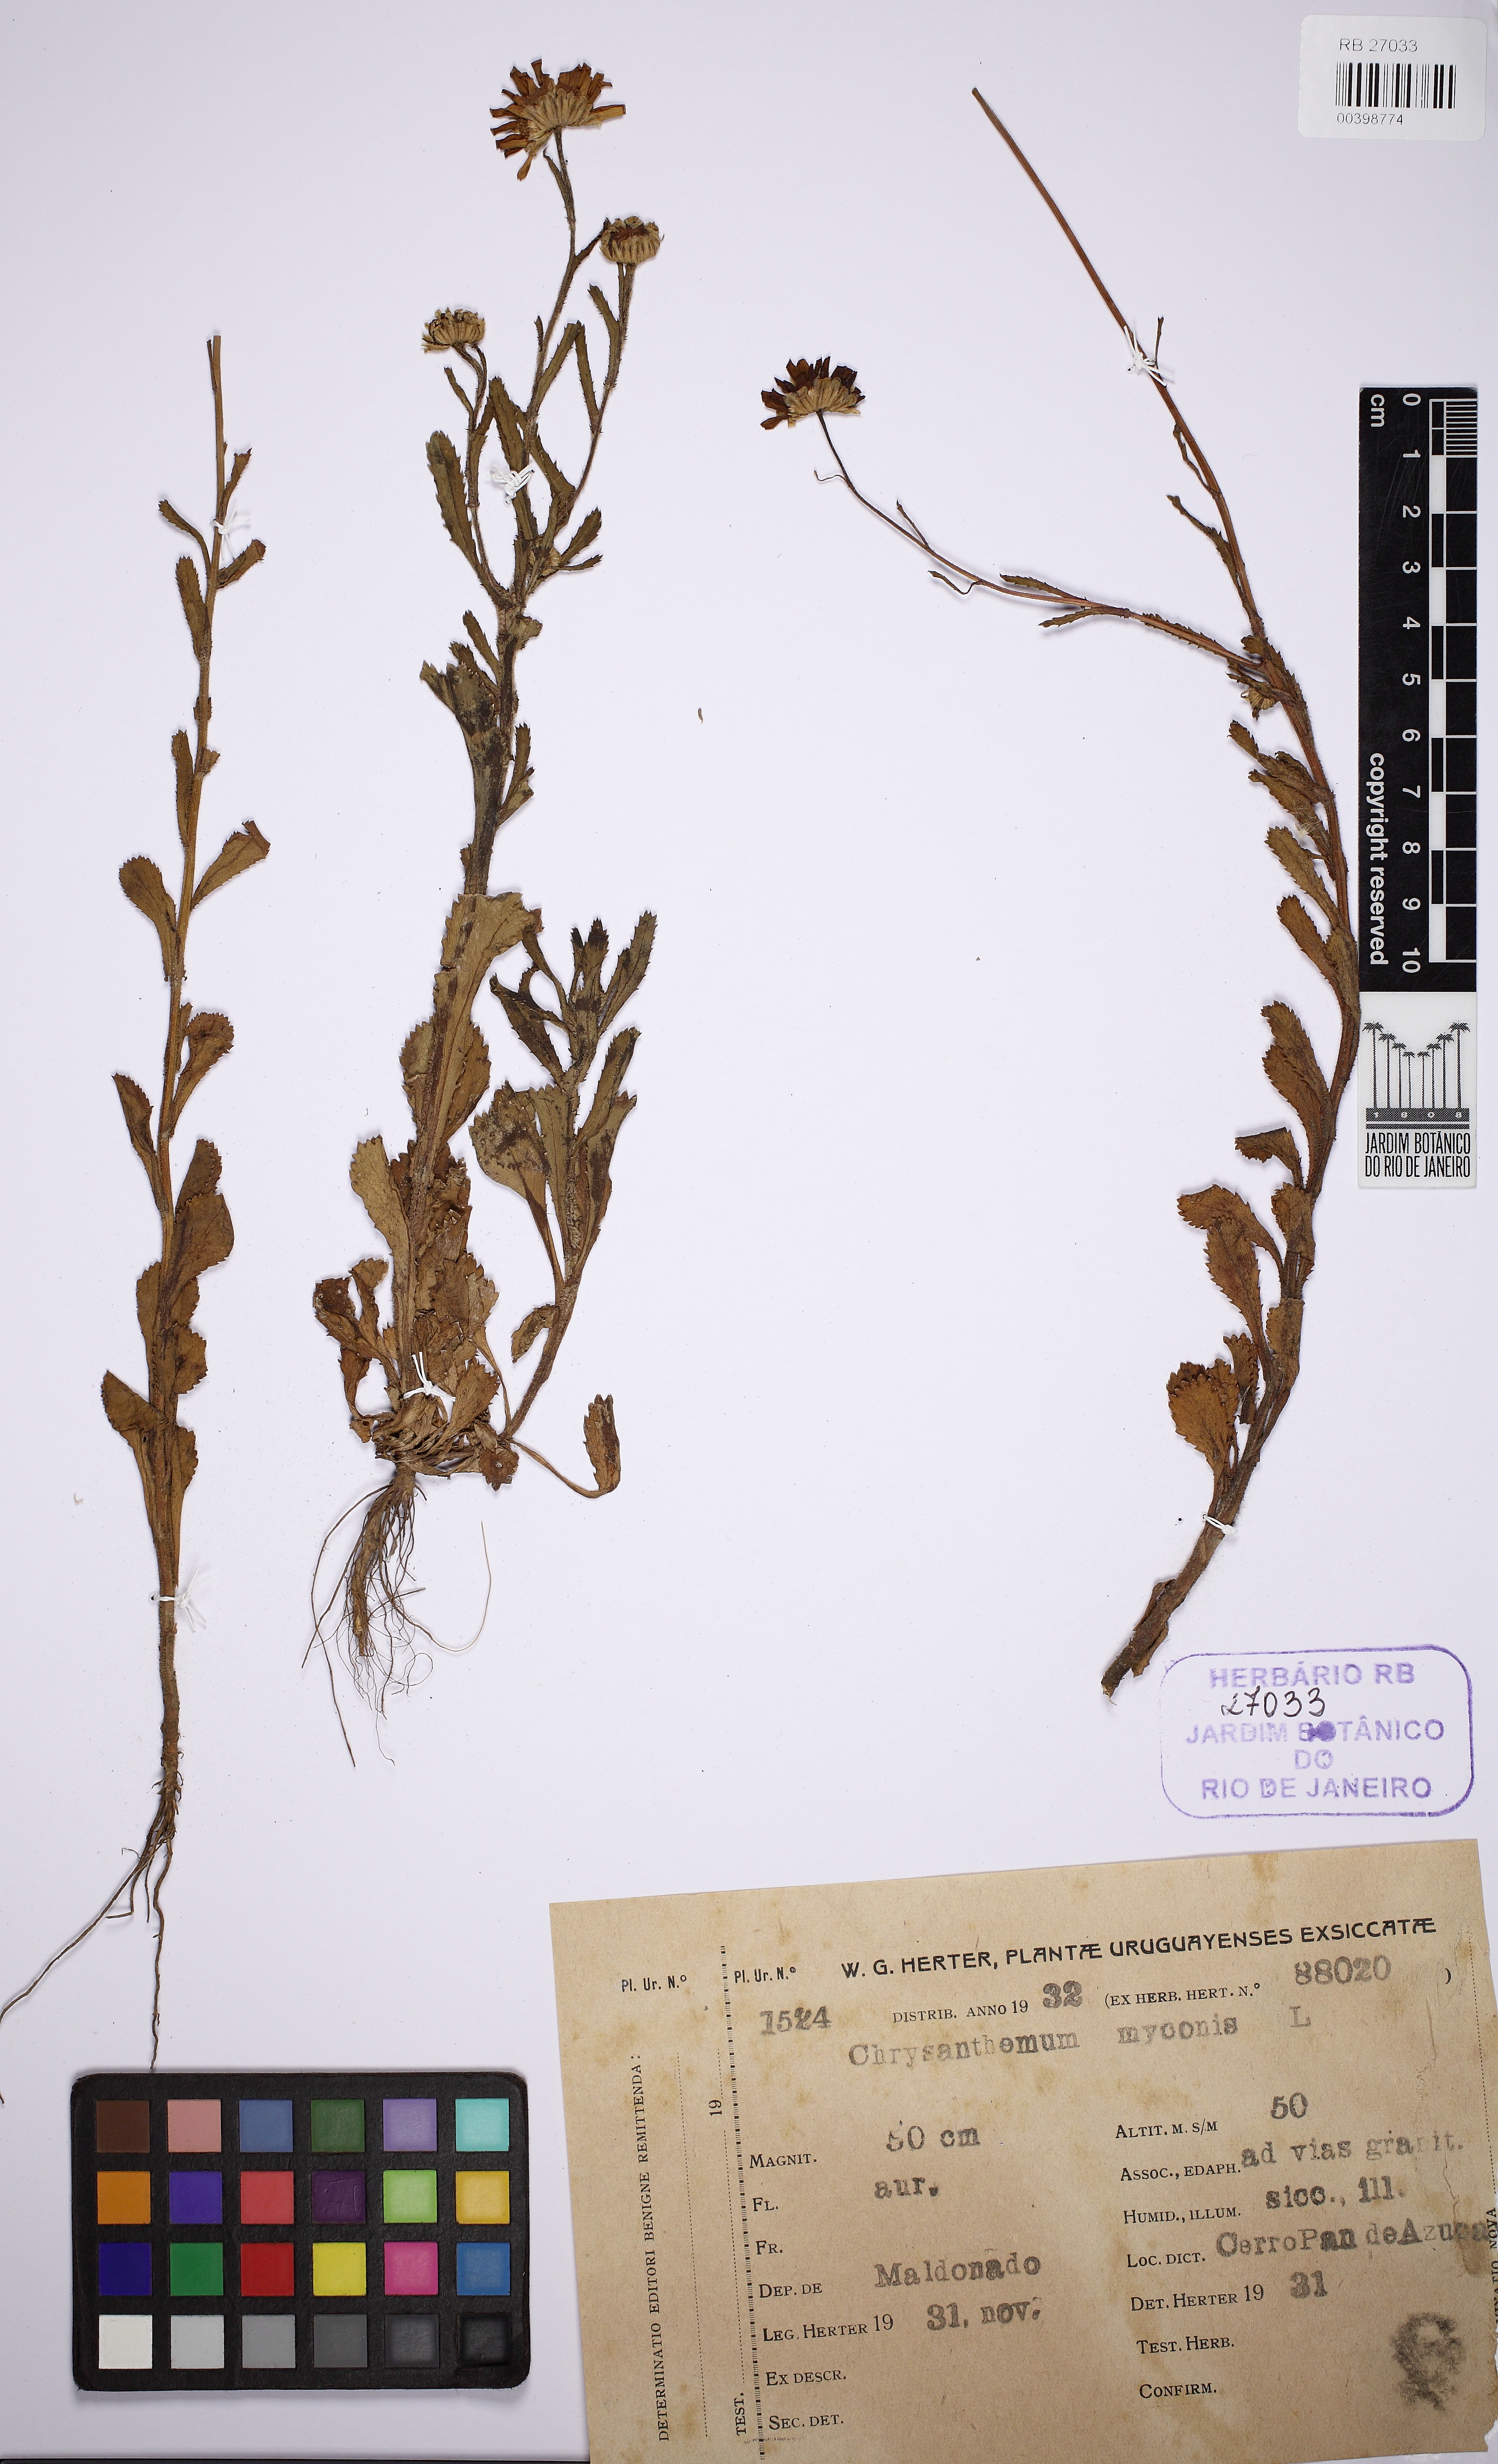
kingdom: Plantae
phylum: Tracheophyta
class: Magnoliopsida
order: Asterales
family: Asteraceae
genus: Coleostephus
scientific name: Coleostephus myconis
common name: Mediterranean marigold
